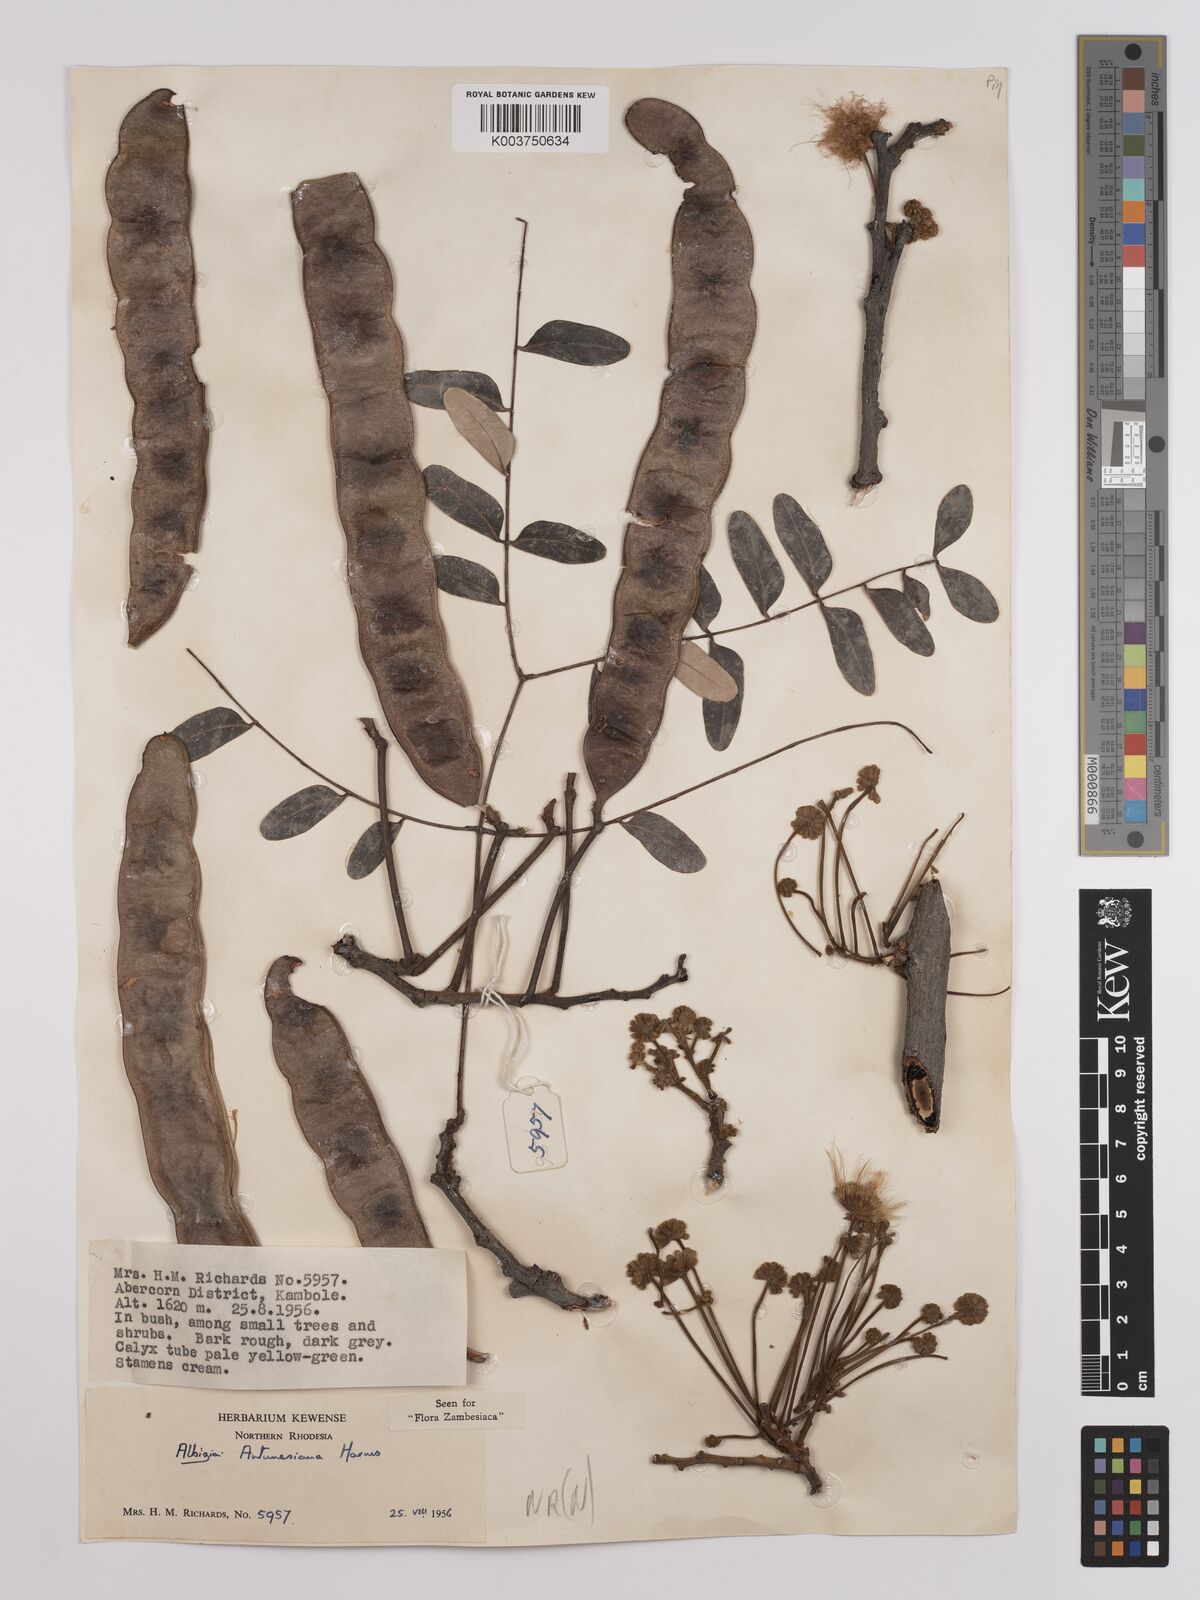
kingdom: Plantae
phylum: Tracheophyta
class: Magnoliopsida
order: Fabales
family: Fabaceae
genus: Albizia
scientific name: Albizia antunesiana
